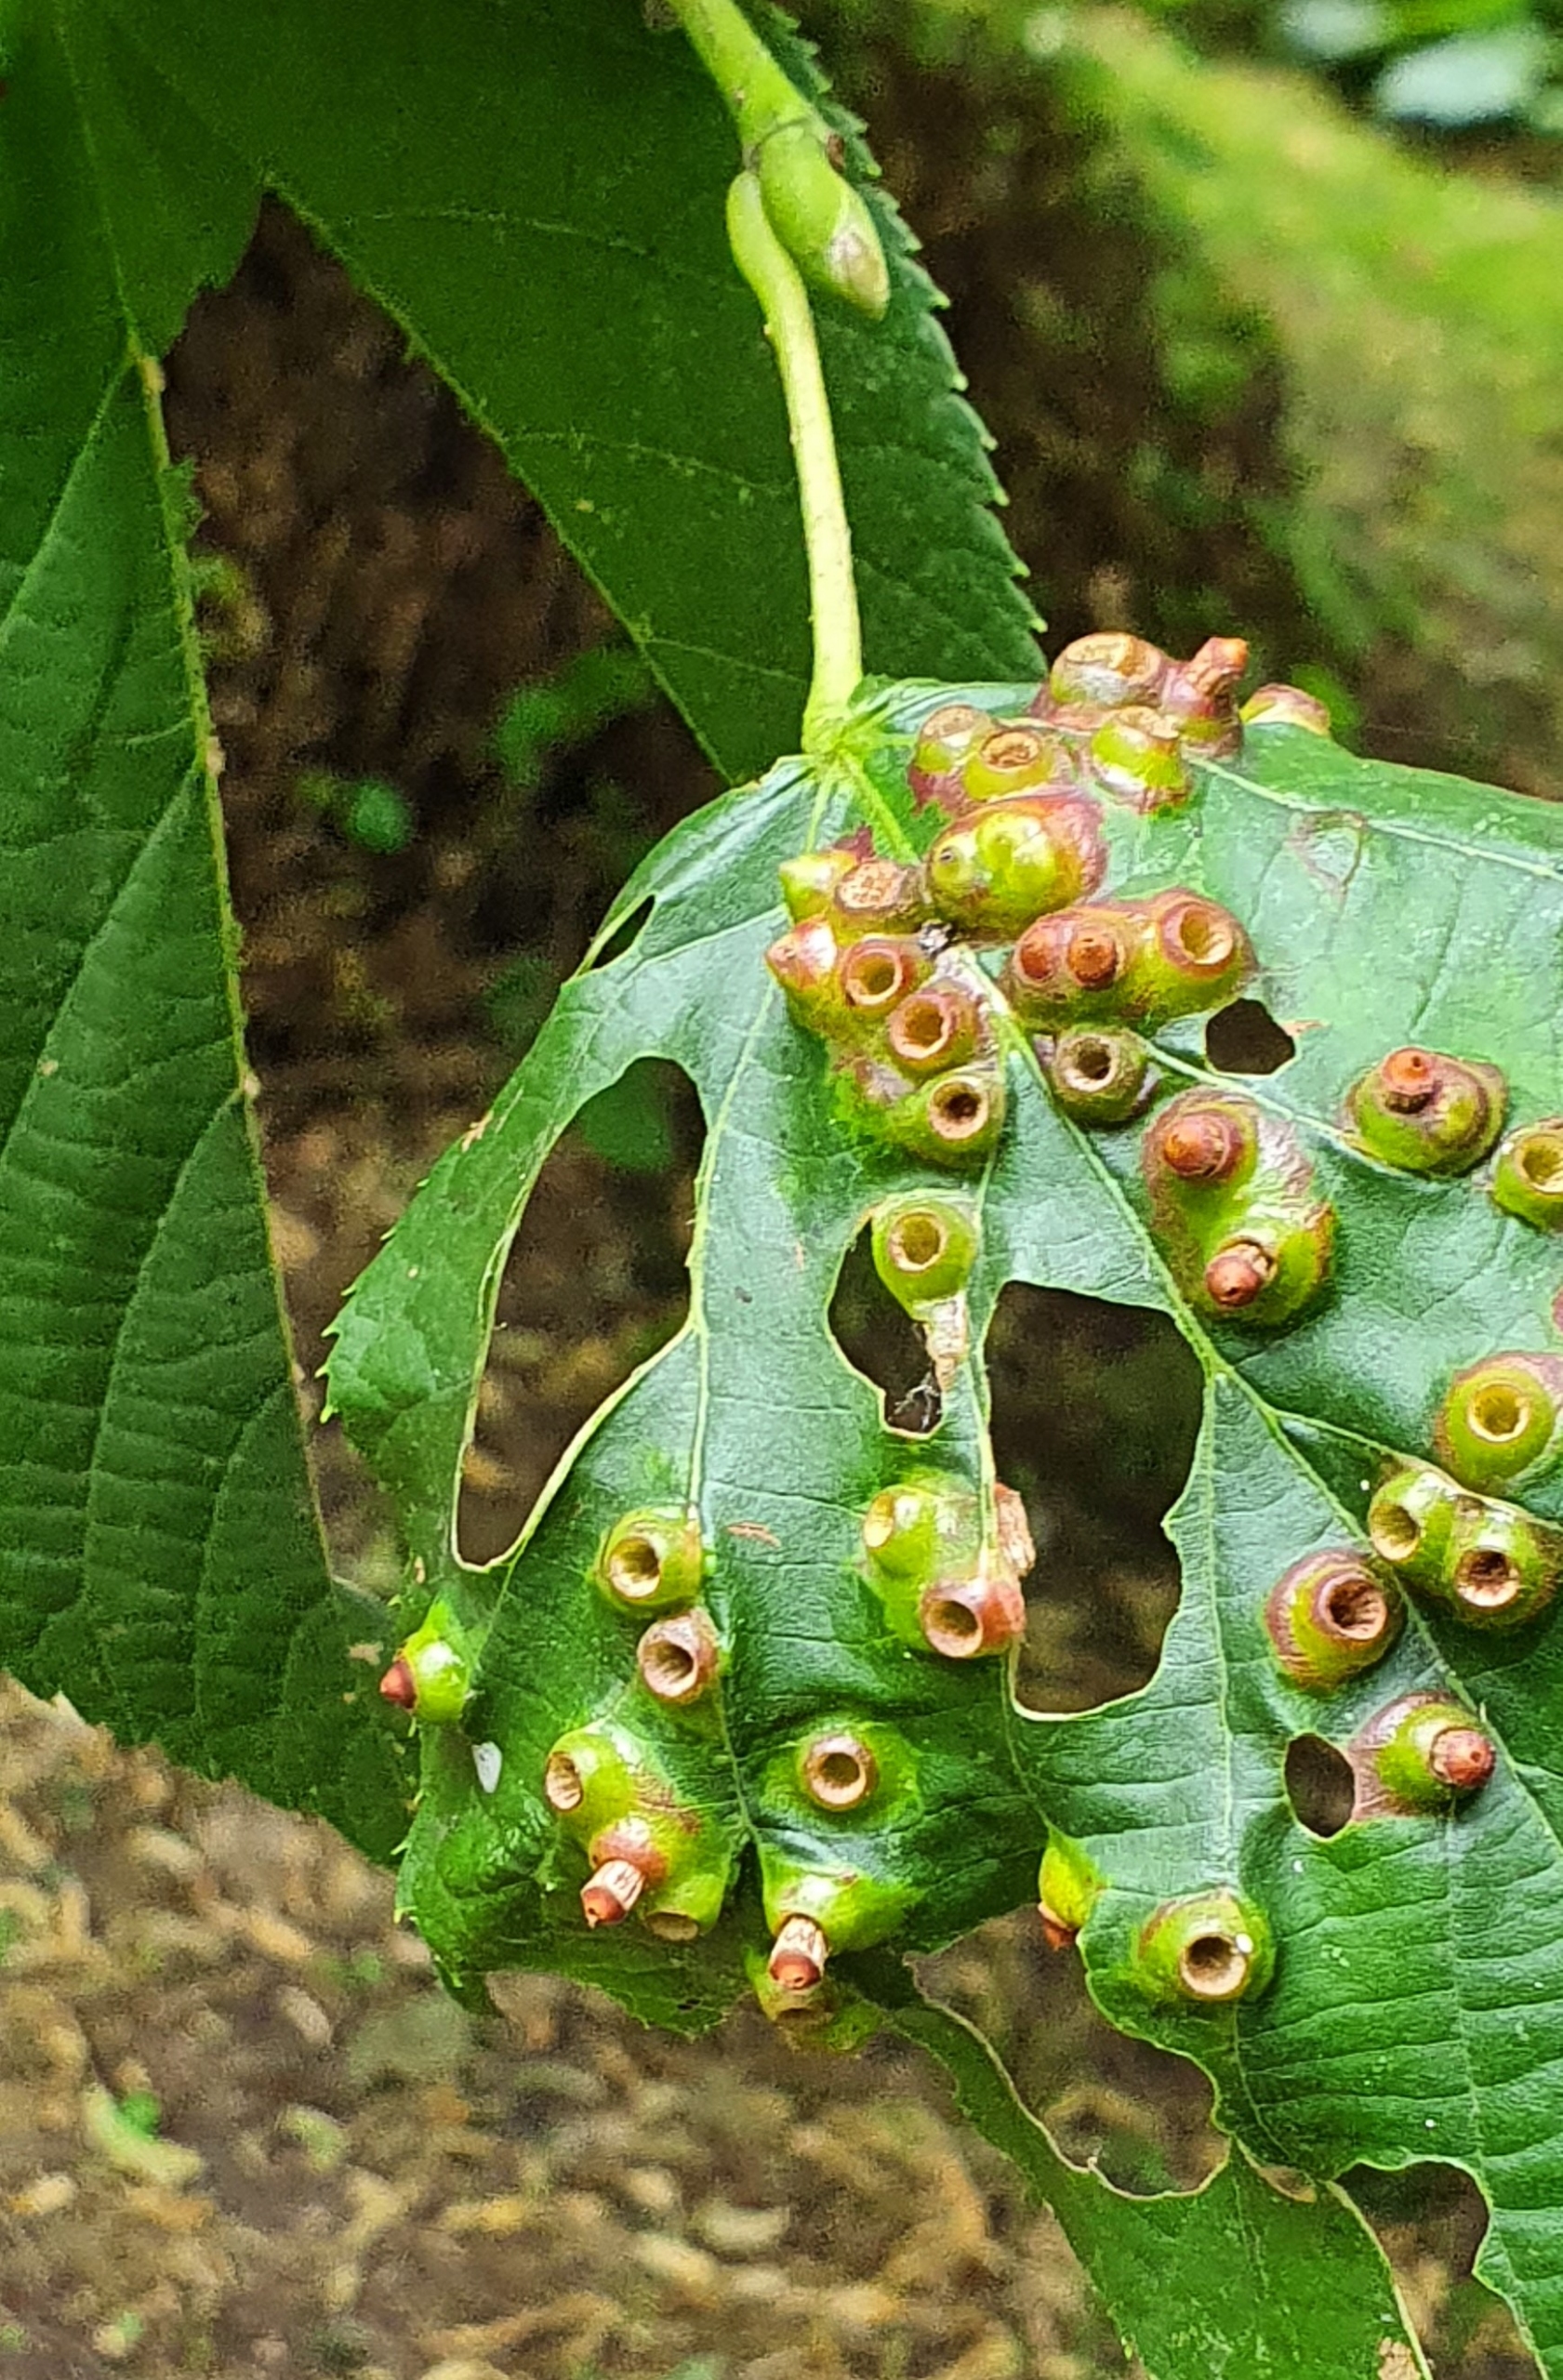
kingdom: Animalia
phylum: Arthropoda
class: Insecta
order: Diptera
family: Cecidomyiidae
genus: Didymomyia
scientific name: Didymomyia tiliacea
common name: Babusjkagalmyg
